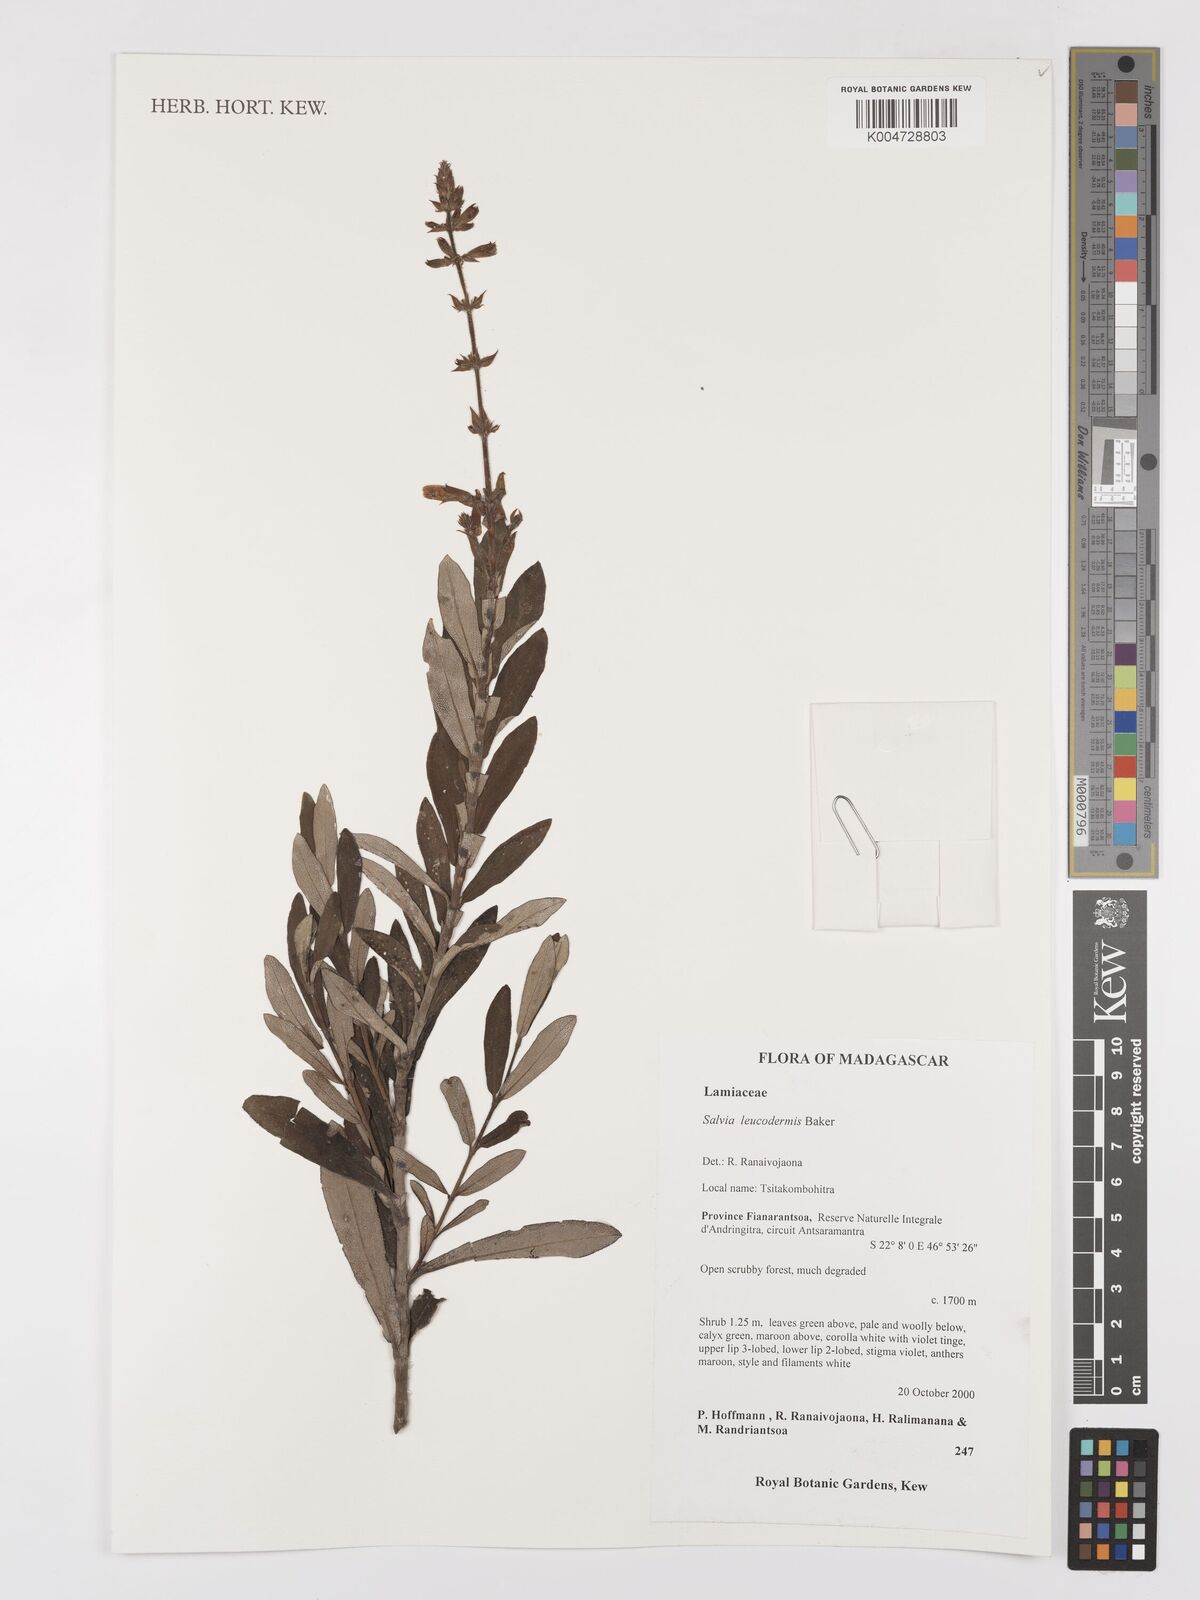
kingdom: Plantae
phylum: Tracheophyta
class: Magnoliopsida
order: Lamiales
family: Lamiaceae
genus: Salvia
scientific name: Salvia leucodermis
